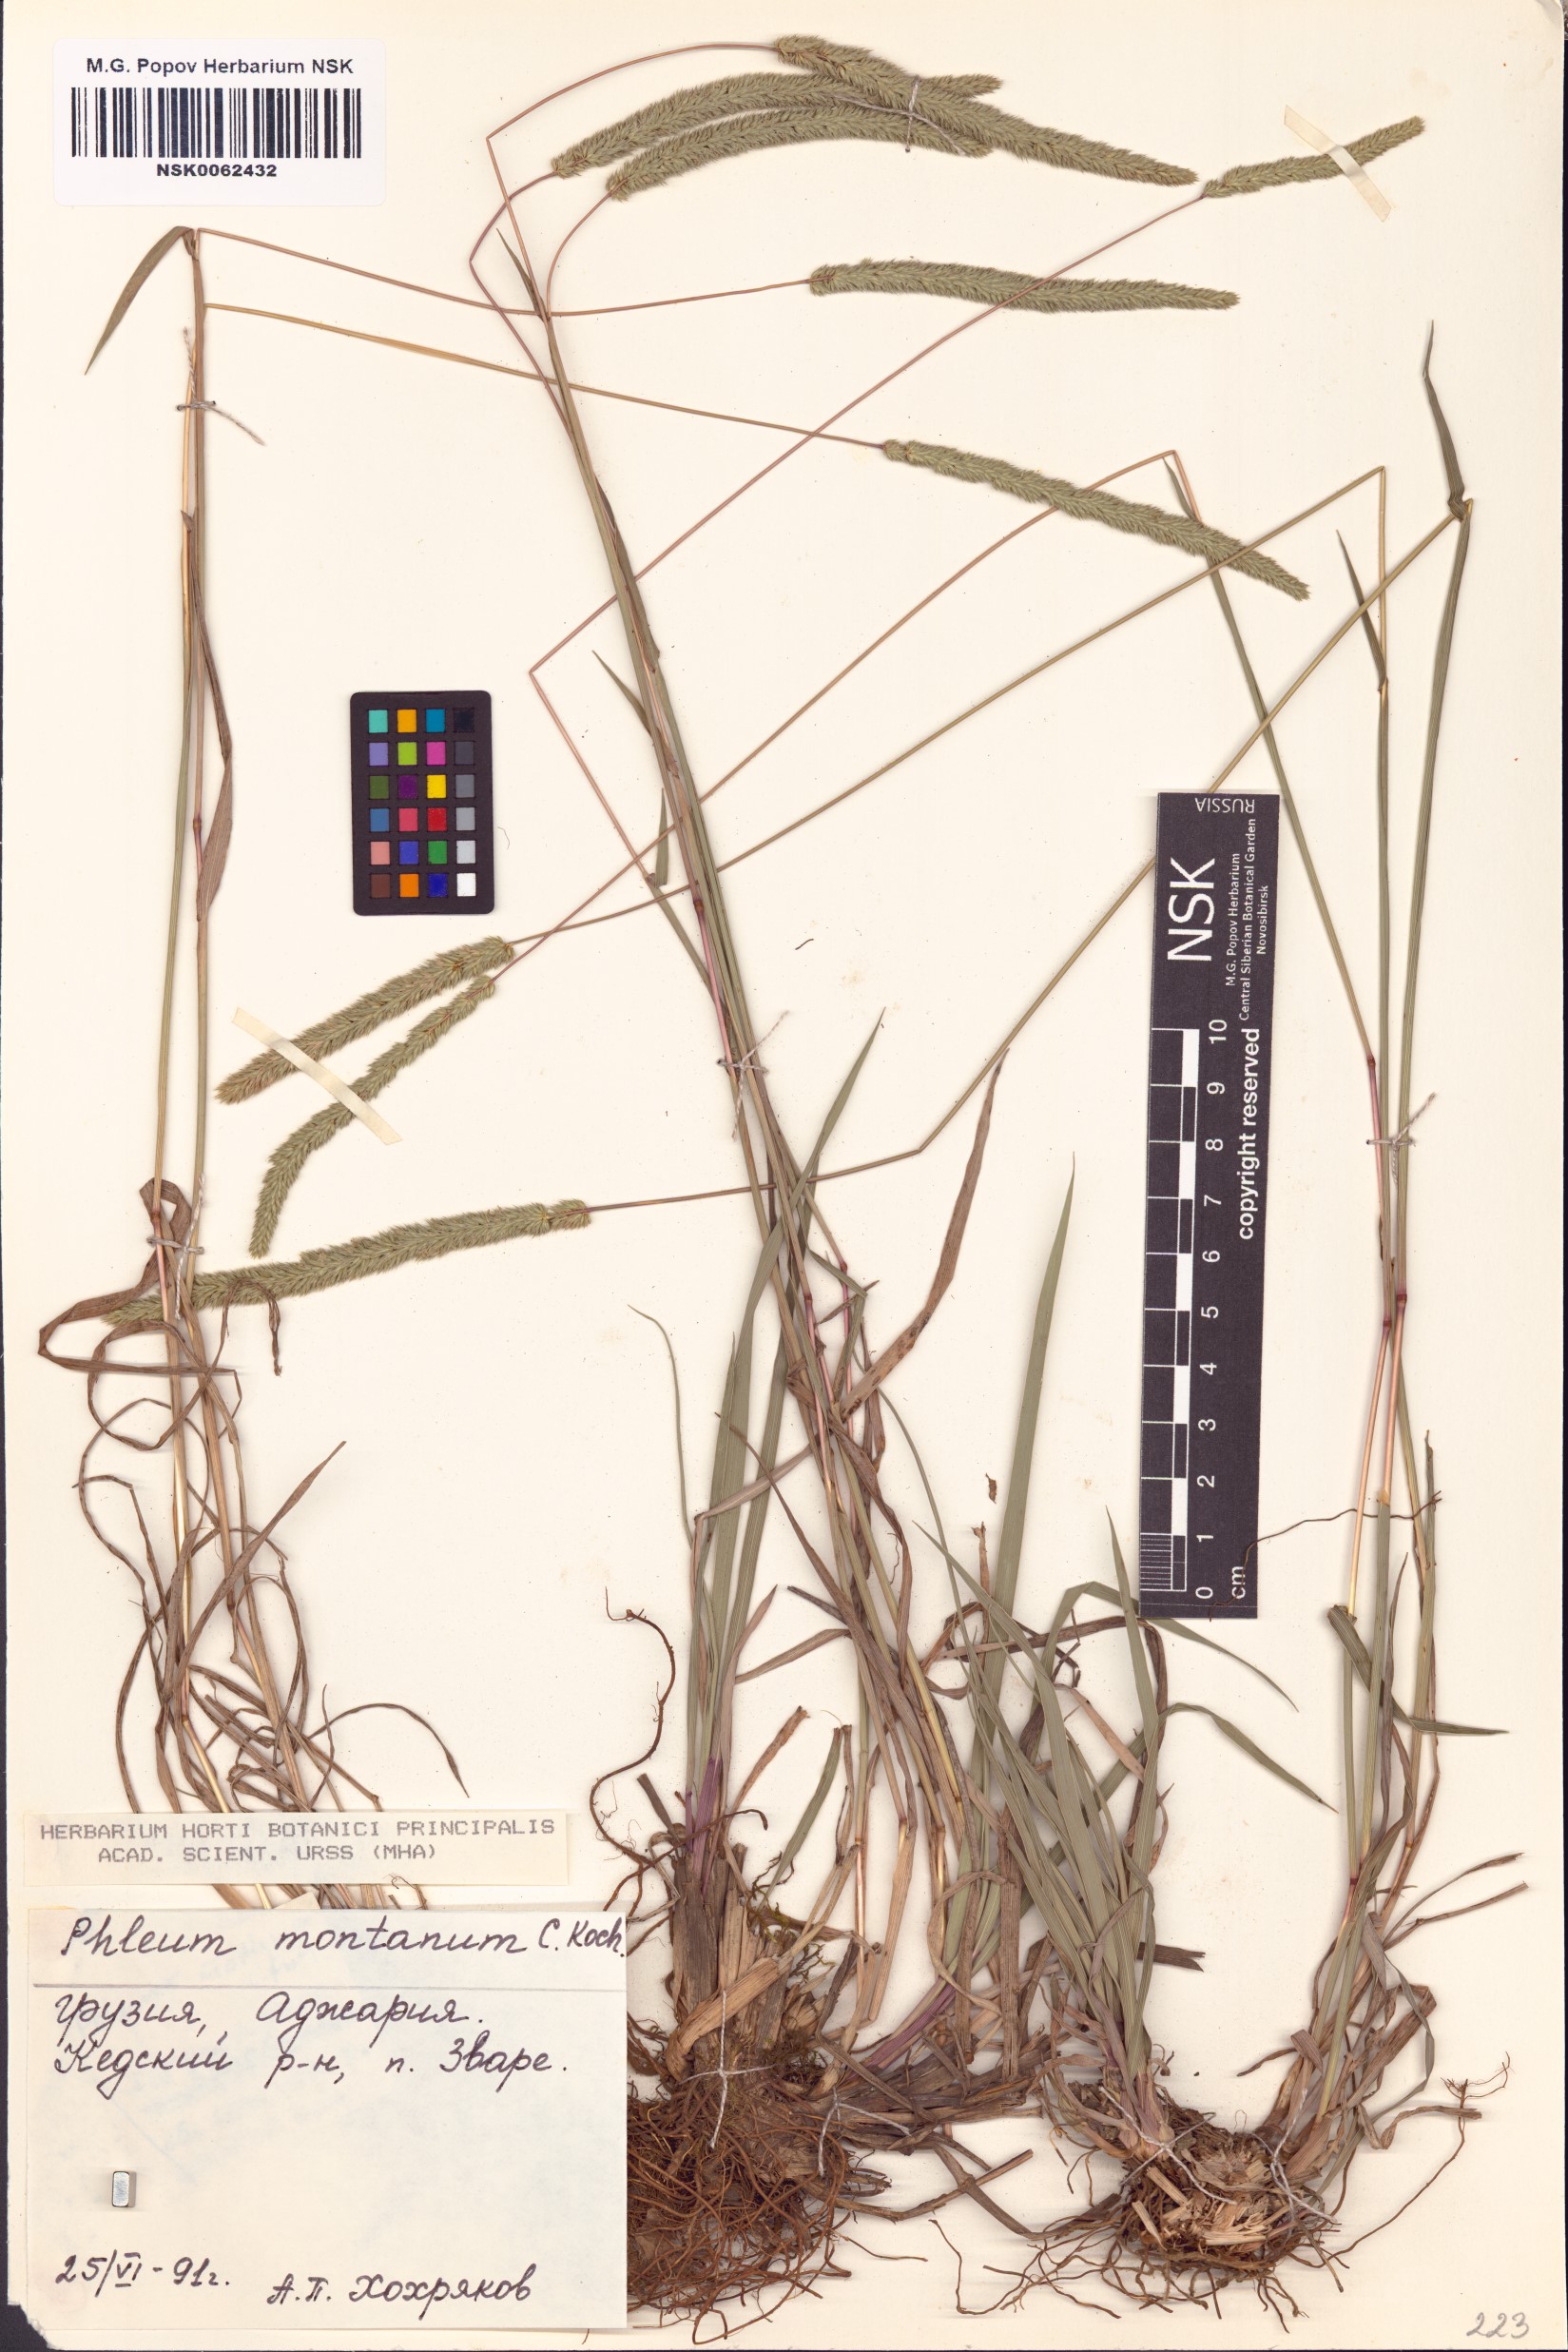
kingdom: Plantae
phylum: Tracheophyta
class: Liliopsida
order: Poales
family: Poaceae
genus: Phleum
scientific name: Phleum montanum
